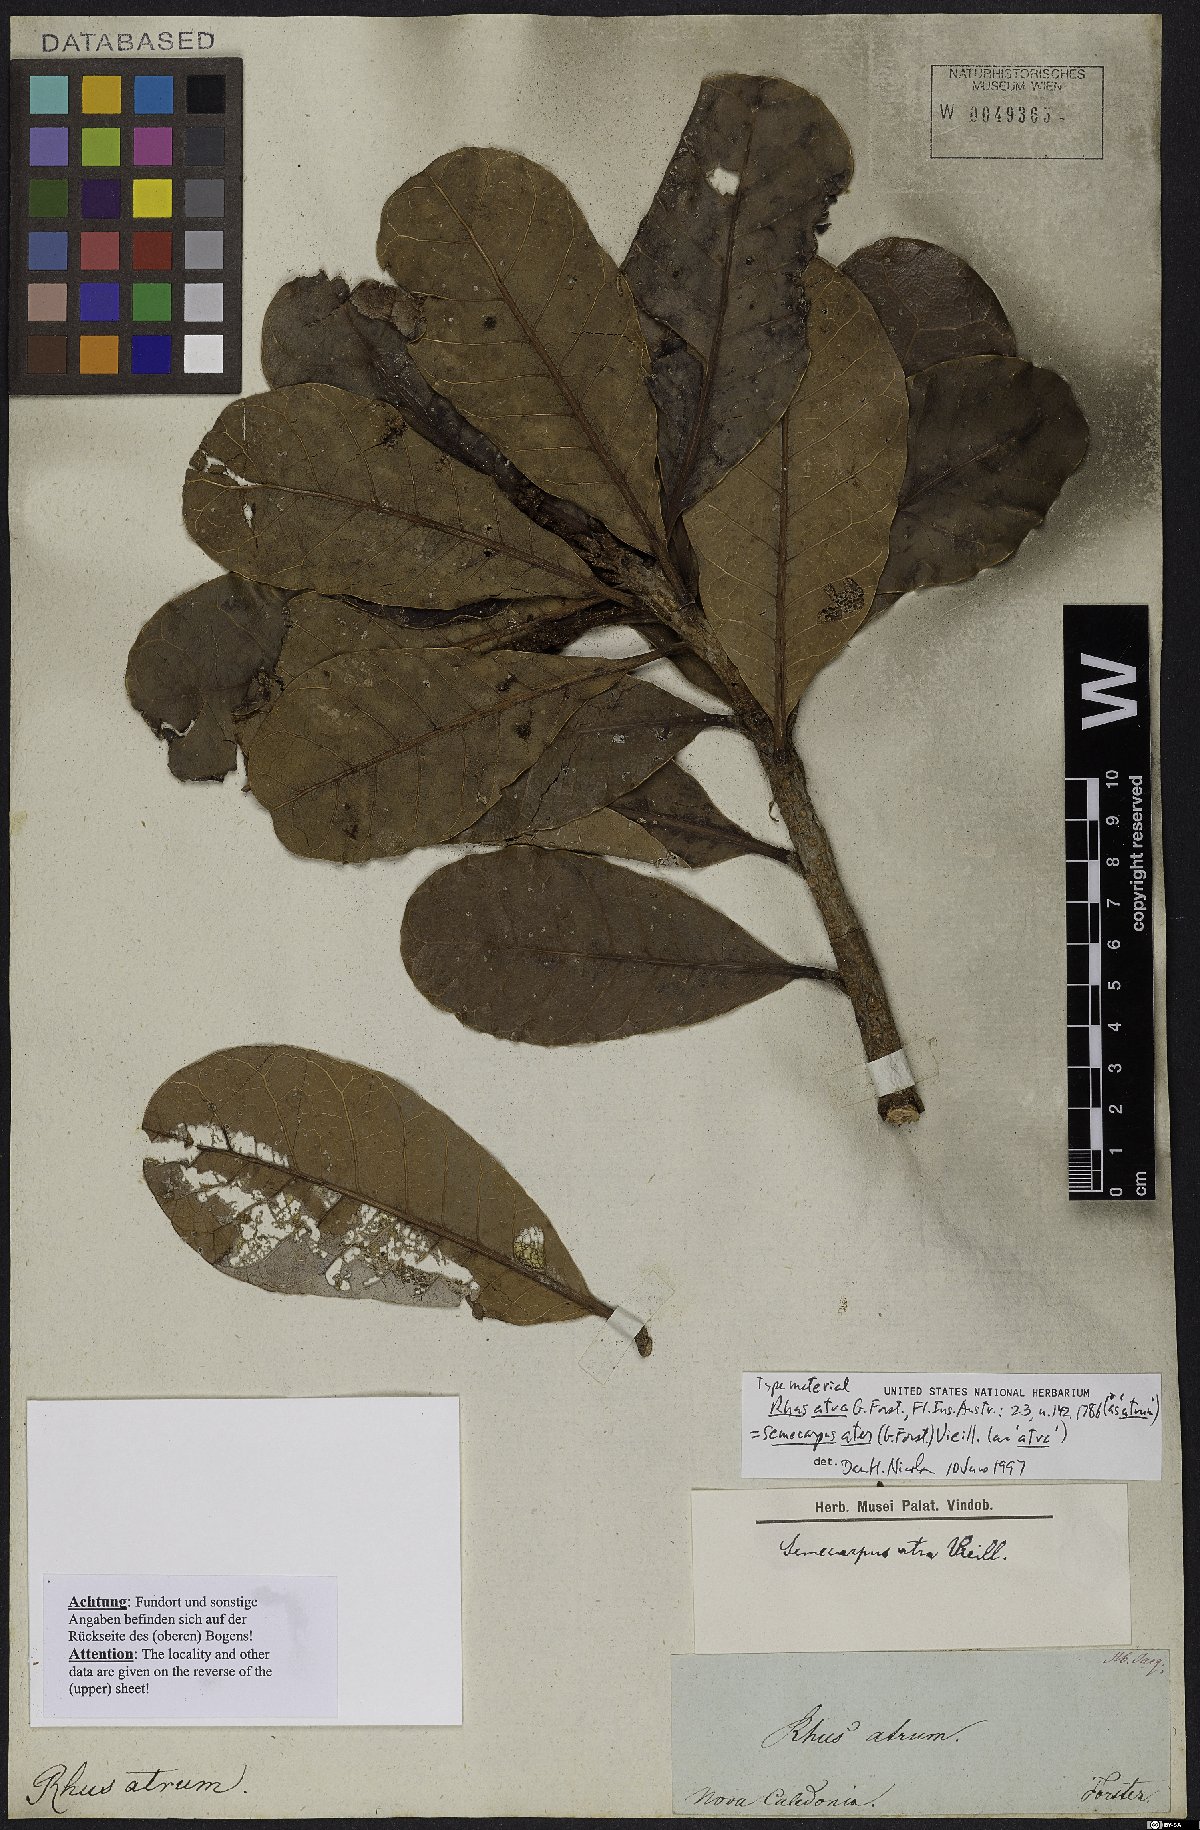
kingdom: Plantae
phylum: Tracheophyta
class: Magnoliopsida
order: Sapindales
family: Anacardiaceae
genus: Semecarpus
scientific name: Semecarpus atra
